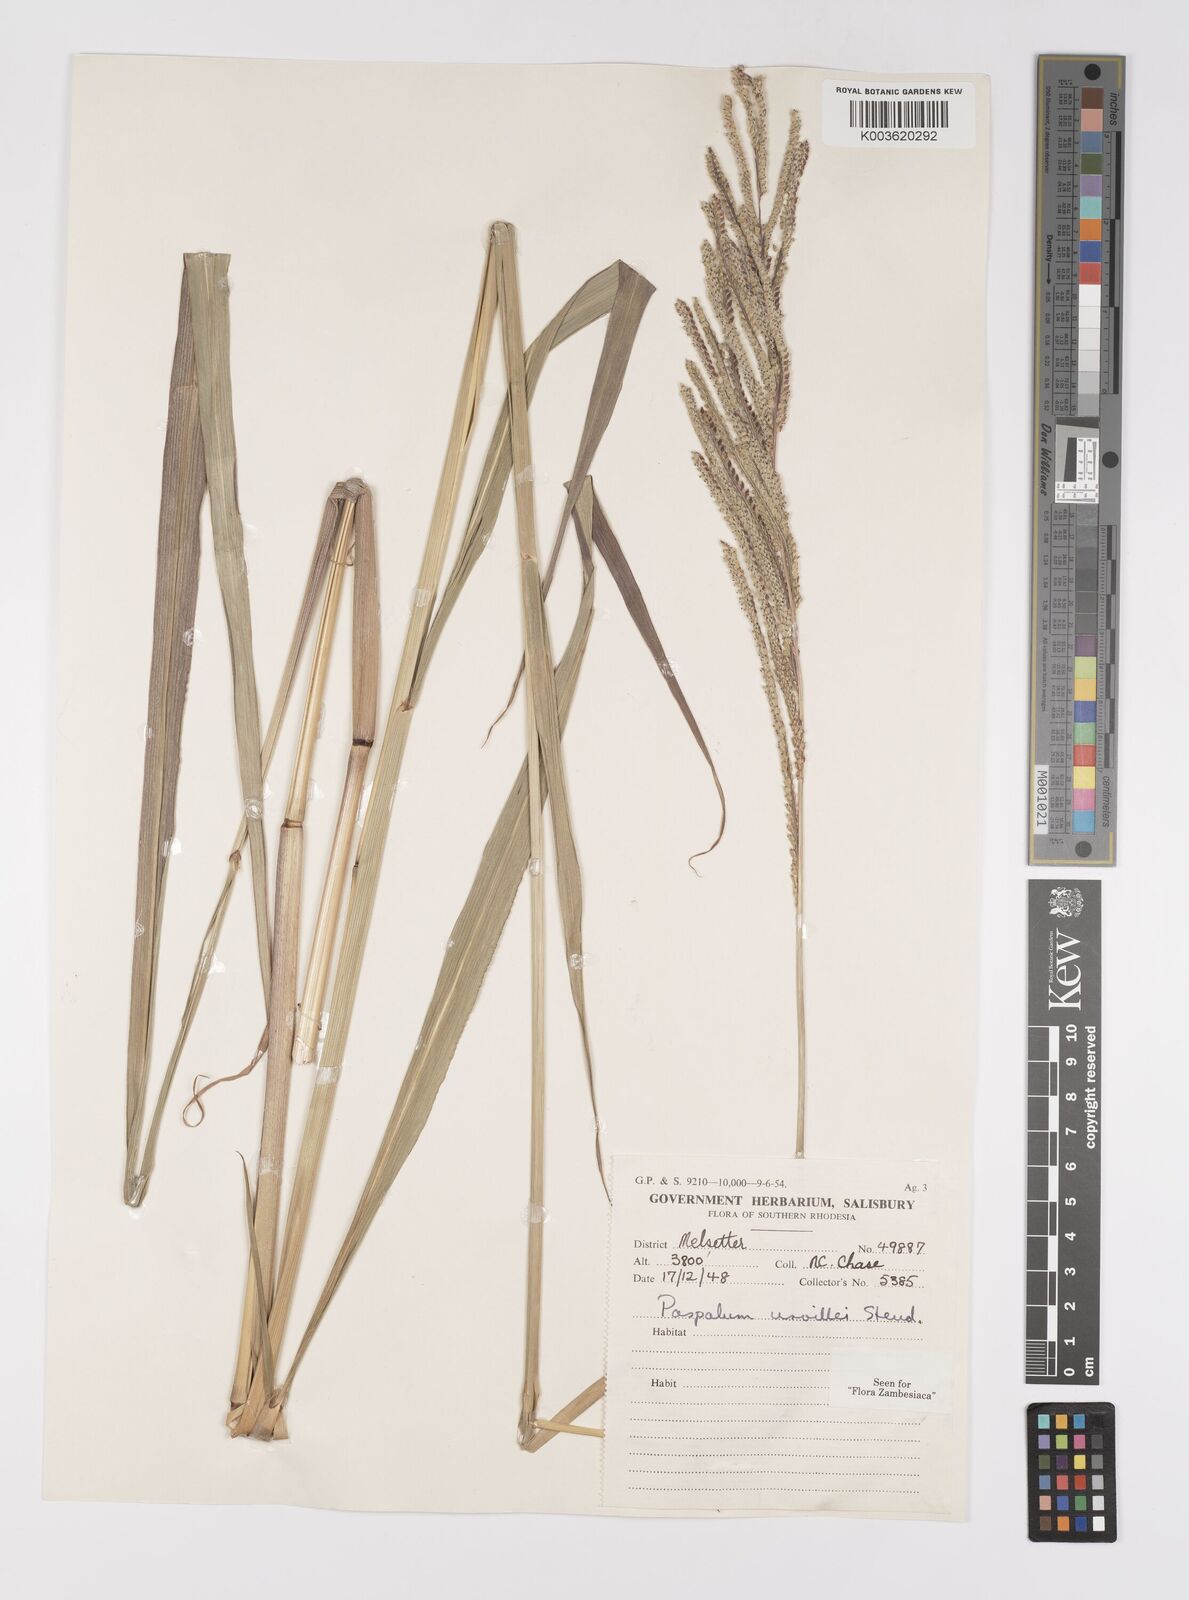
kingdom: Plantae
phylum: Tracheophyta
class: Liliopsida
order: Poales
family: Poaceae
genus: Paspalum
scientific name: Paspalum urvillei
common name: Vasey's grass
